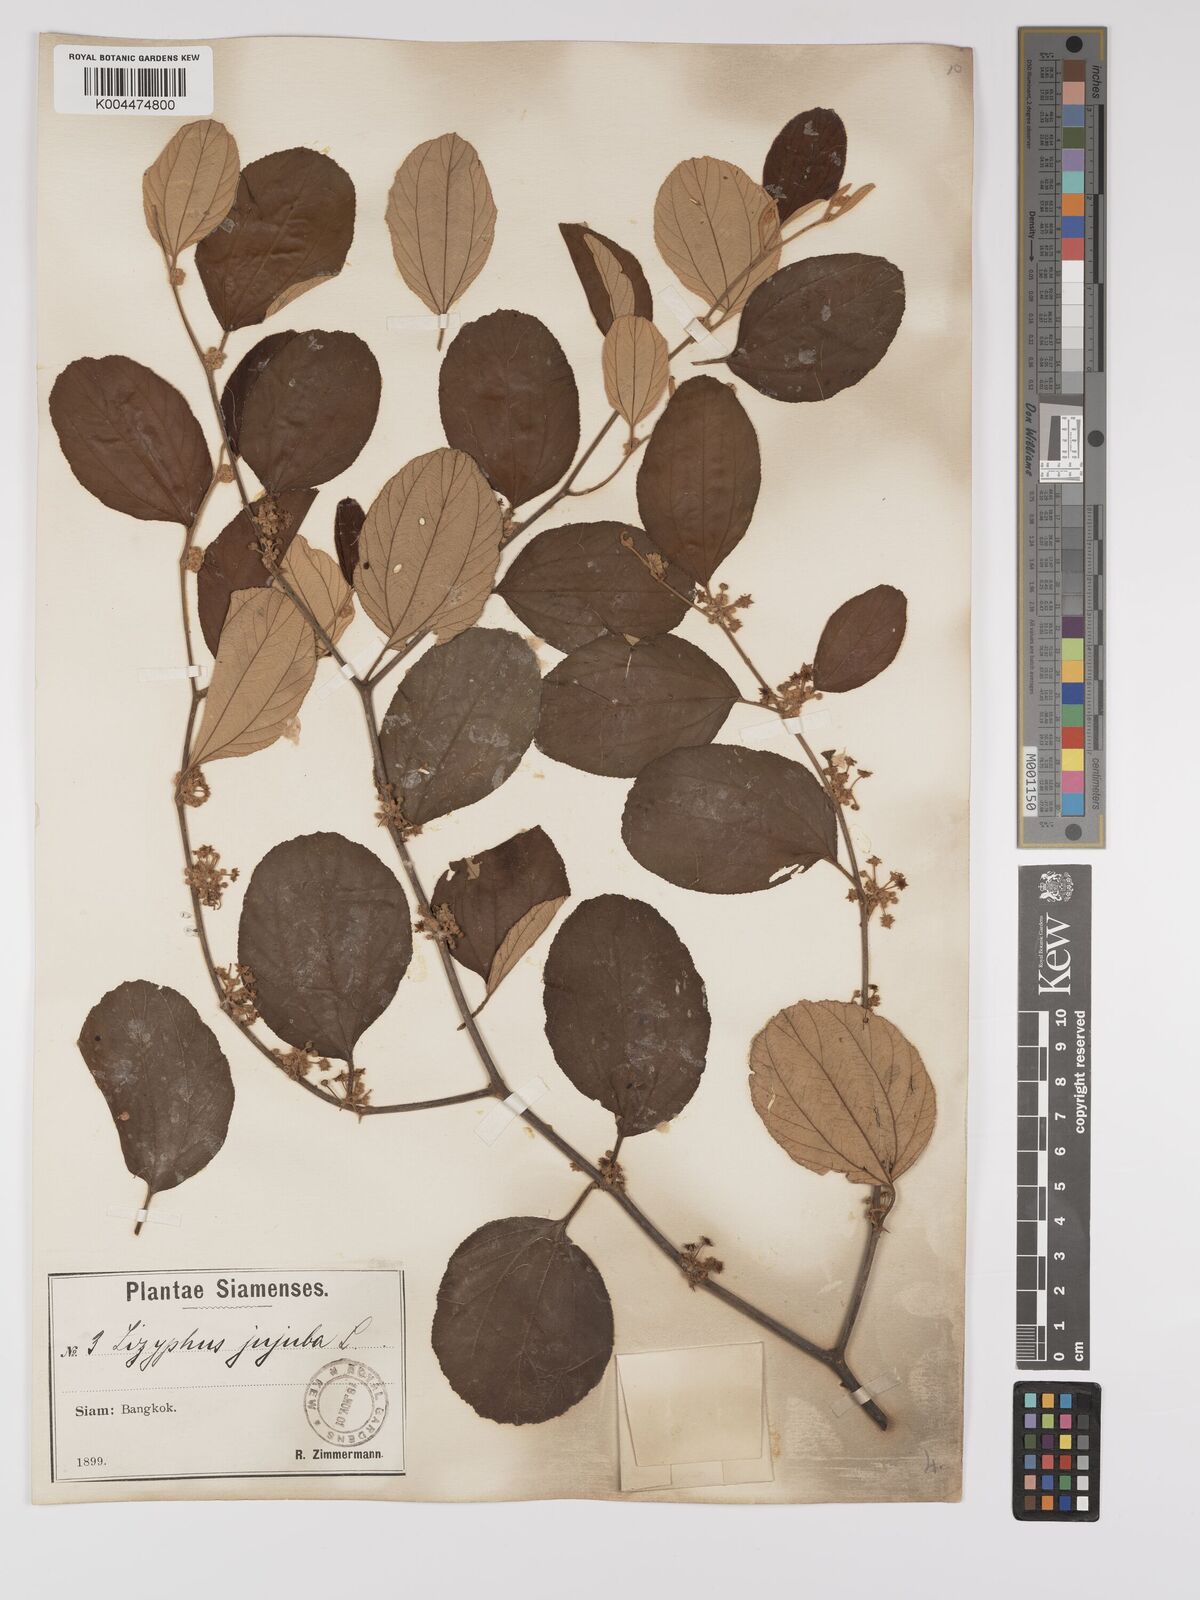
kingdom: Plantae
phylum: Tracheophyta
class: Magnoliopsida
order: Rosales
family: Rhamnaceae
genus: Ziziphus
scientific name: Ziziphus mauritiana
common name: Indian jujube
